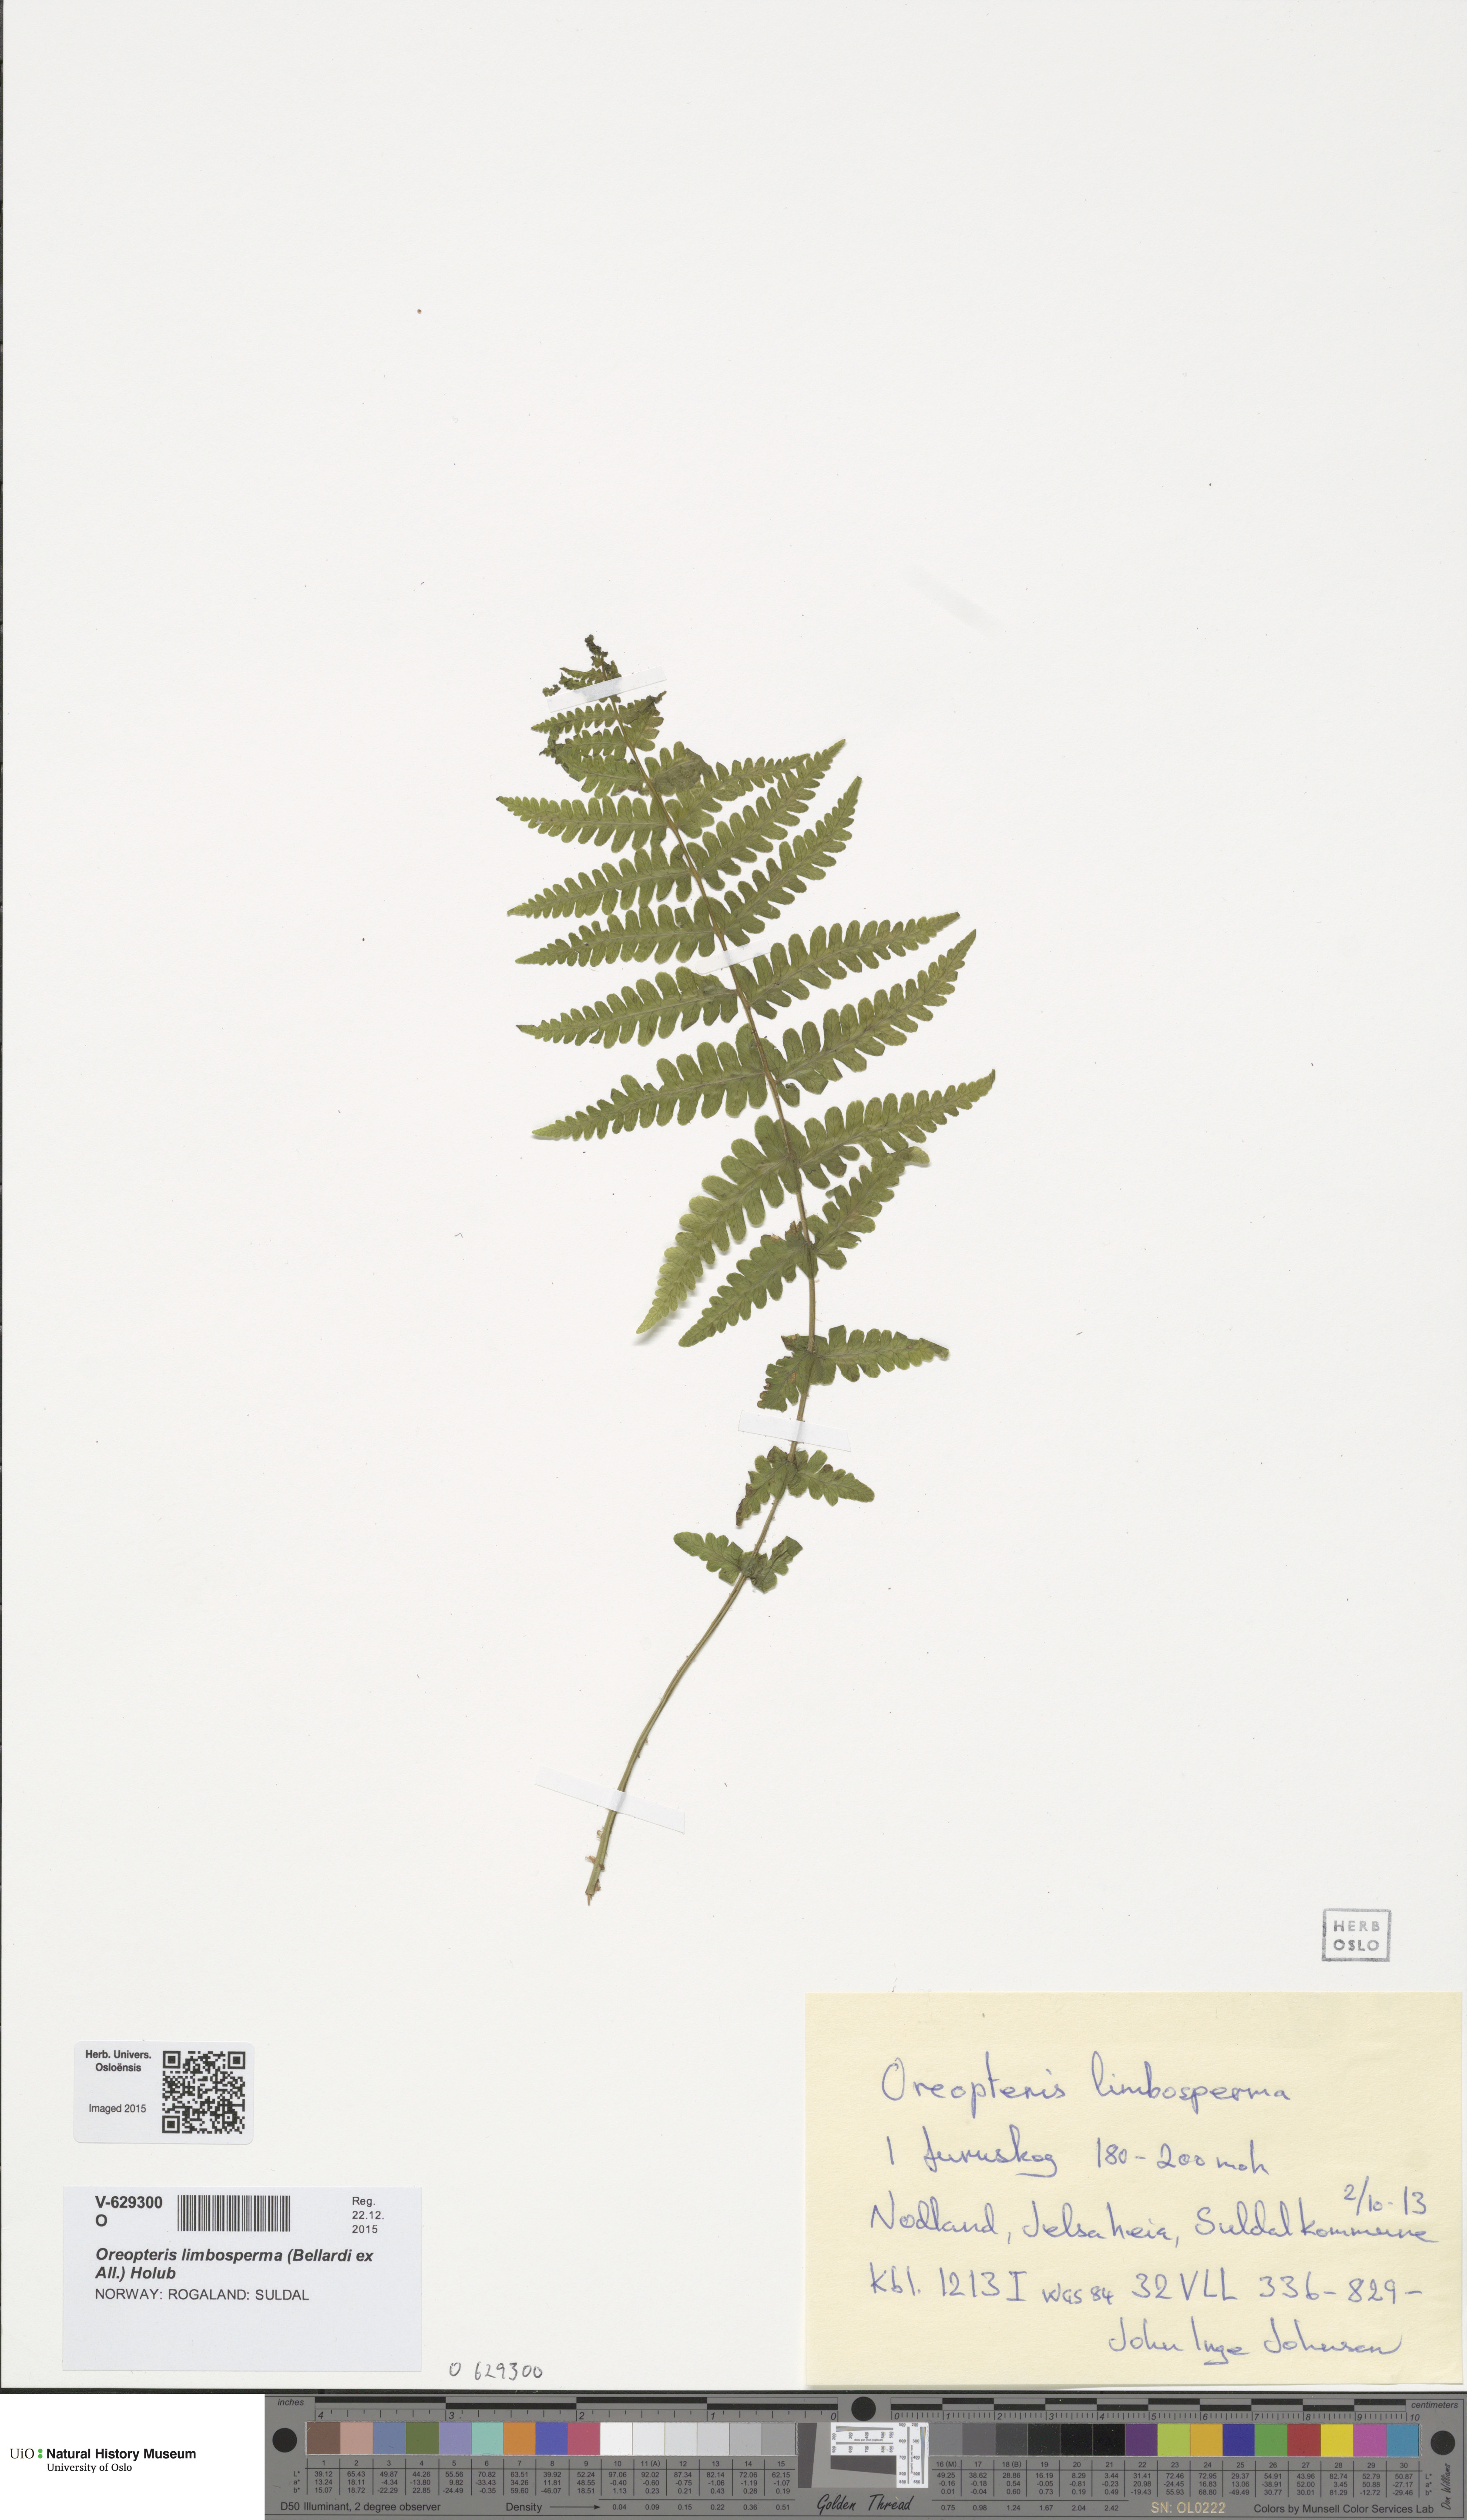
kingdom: Plantae
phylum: Tracheophyta
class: Polypodiopsida
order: Polypodiales
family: Thelypteridaceae
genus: Oreopteris
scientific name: Oreopteris limbosperma
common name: Lemon-scented fern
